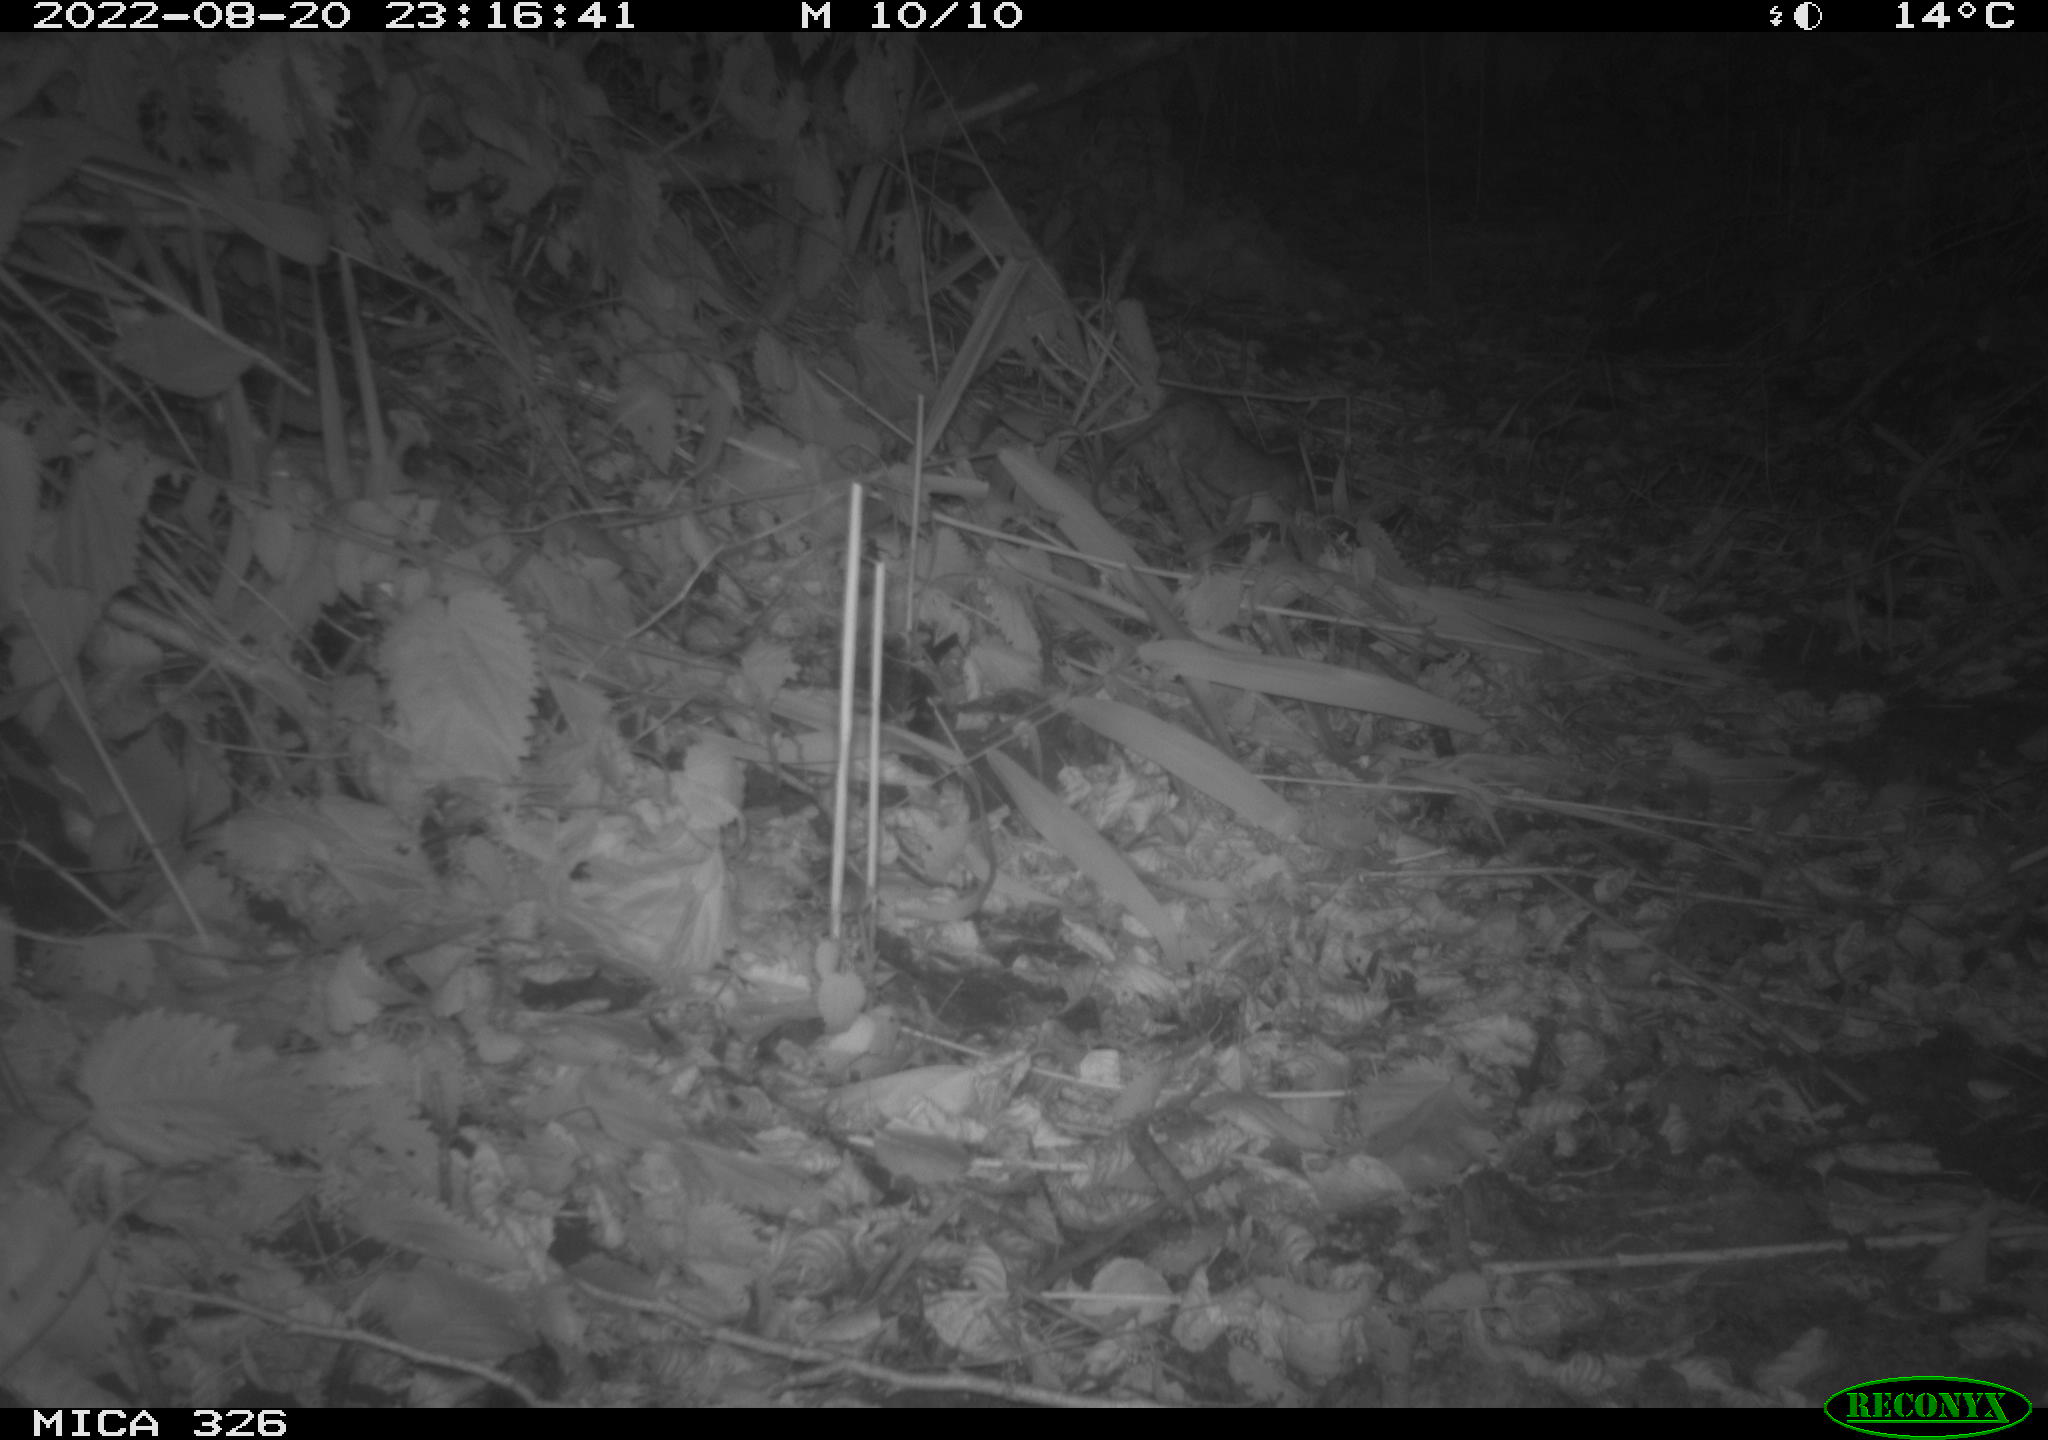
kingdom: Animalia
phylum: Chordata
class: Mammalia
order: Rodentia
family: Muridae
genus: Rattus
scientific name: Rattus norvegicus
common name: Brown rat
